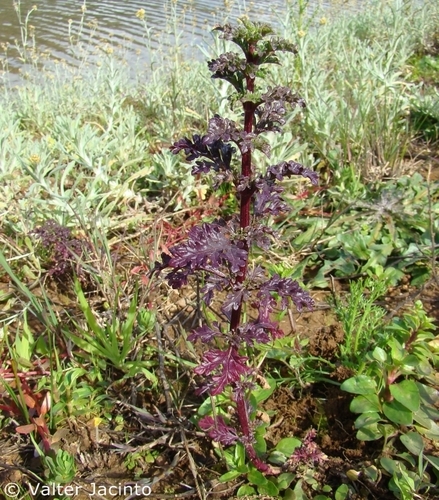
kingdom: Plantae
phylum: Tracheophyta
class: Magnoliopsida
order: Asterales
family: Asteraceae
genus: Jacobaea
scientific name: Jacobaea vulgaris
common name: Stinking willie
